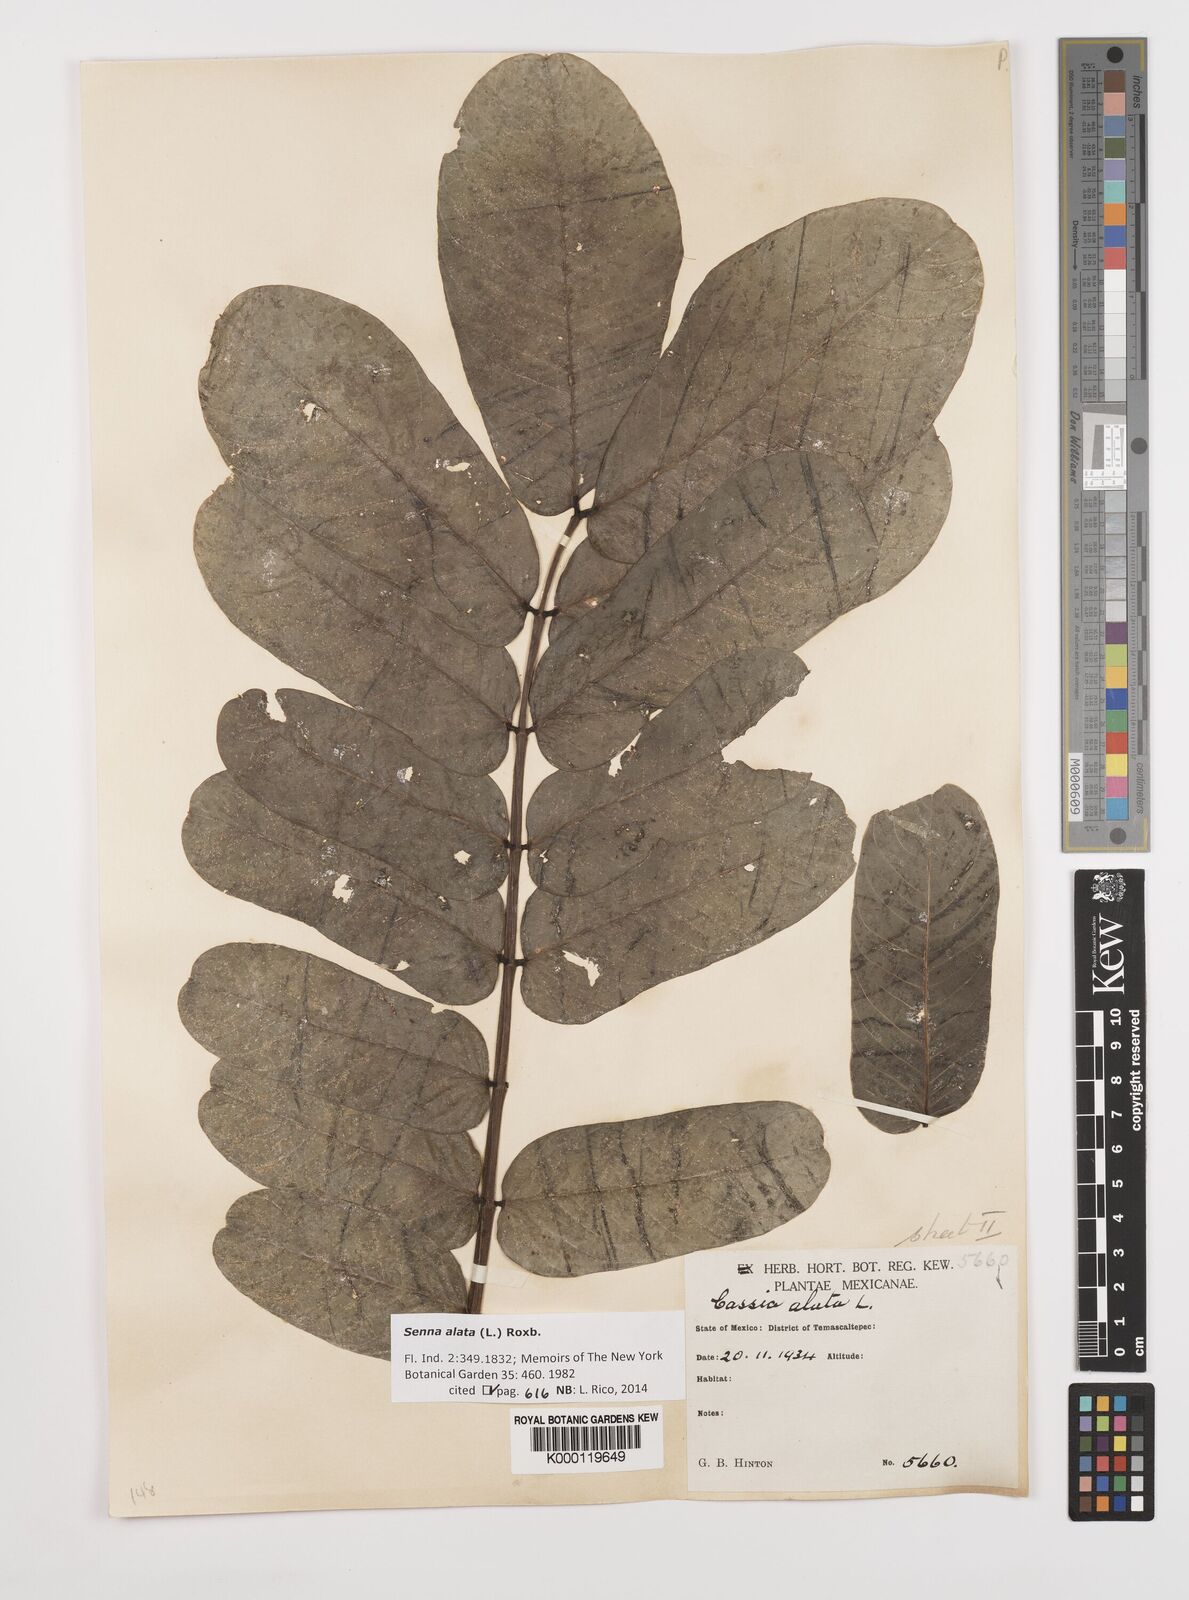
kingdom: Plantae
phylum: Tracheophyta
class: Magnoliopsida
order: Fabales
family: Fabaceae
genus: Senna
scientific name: Senna alata
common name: Emperor's candlesticks
